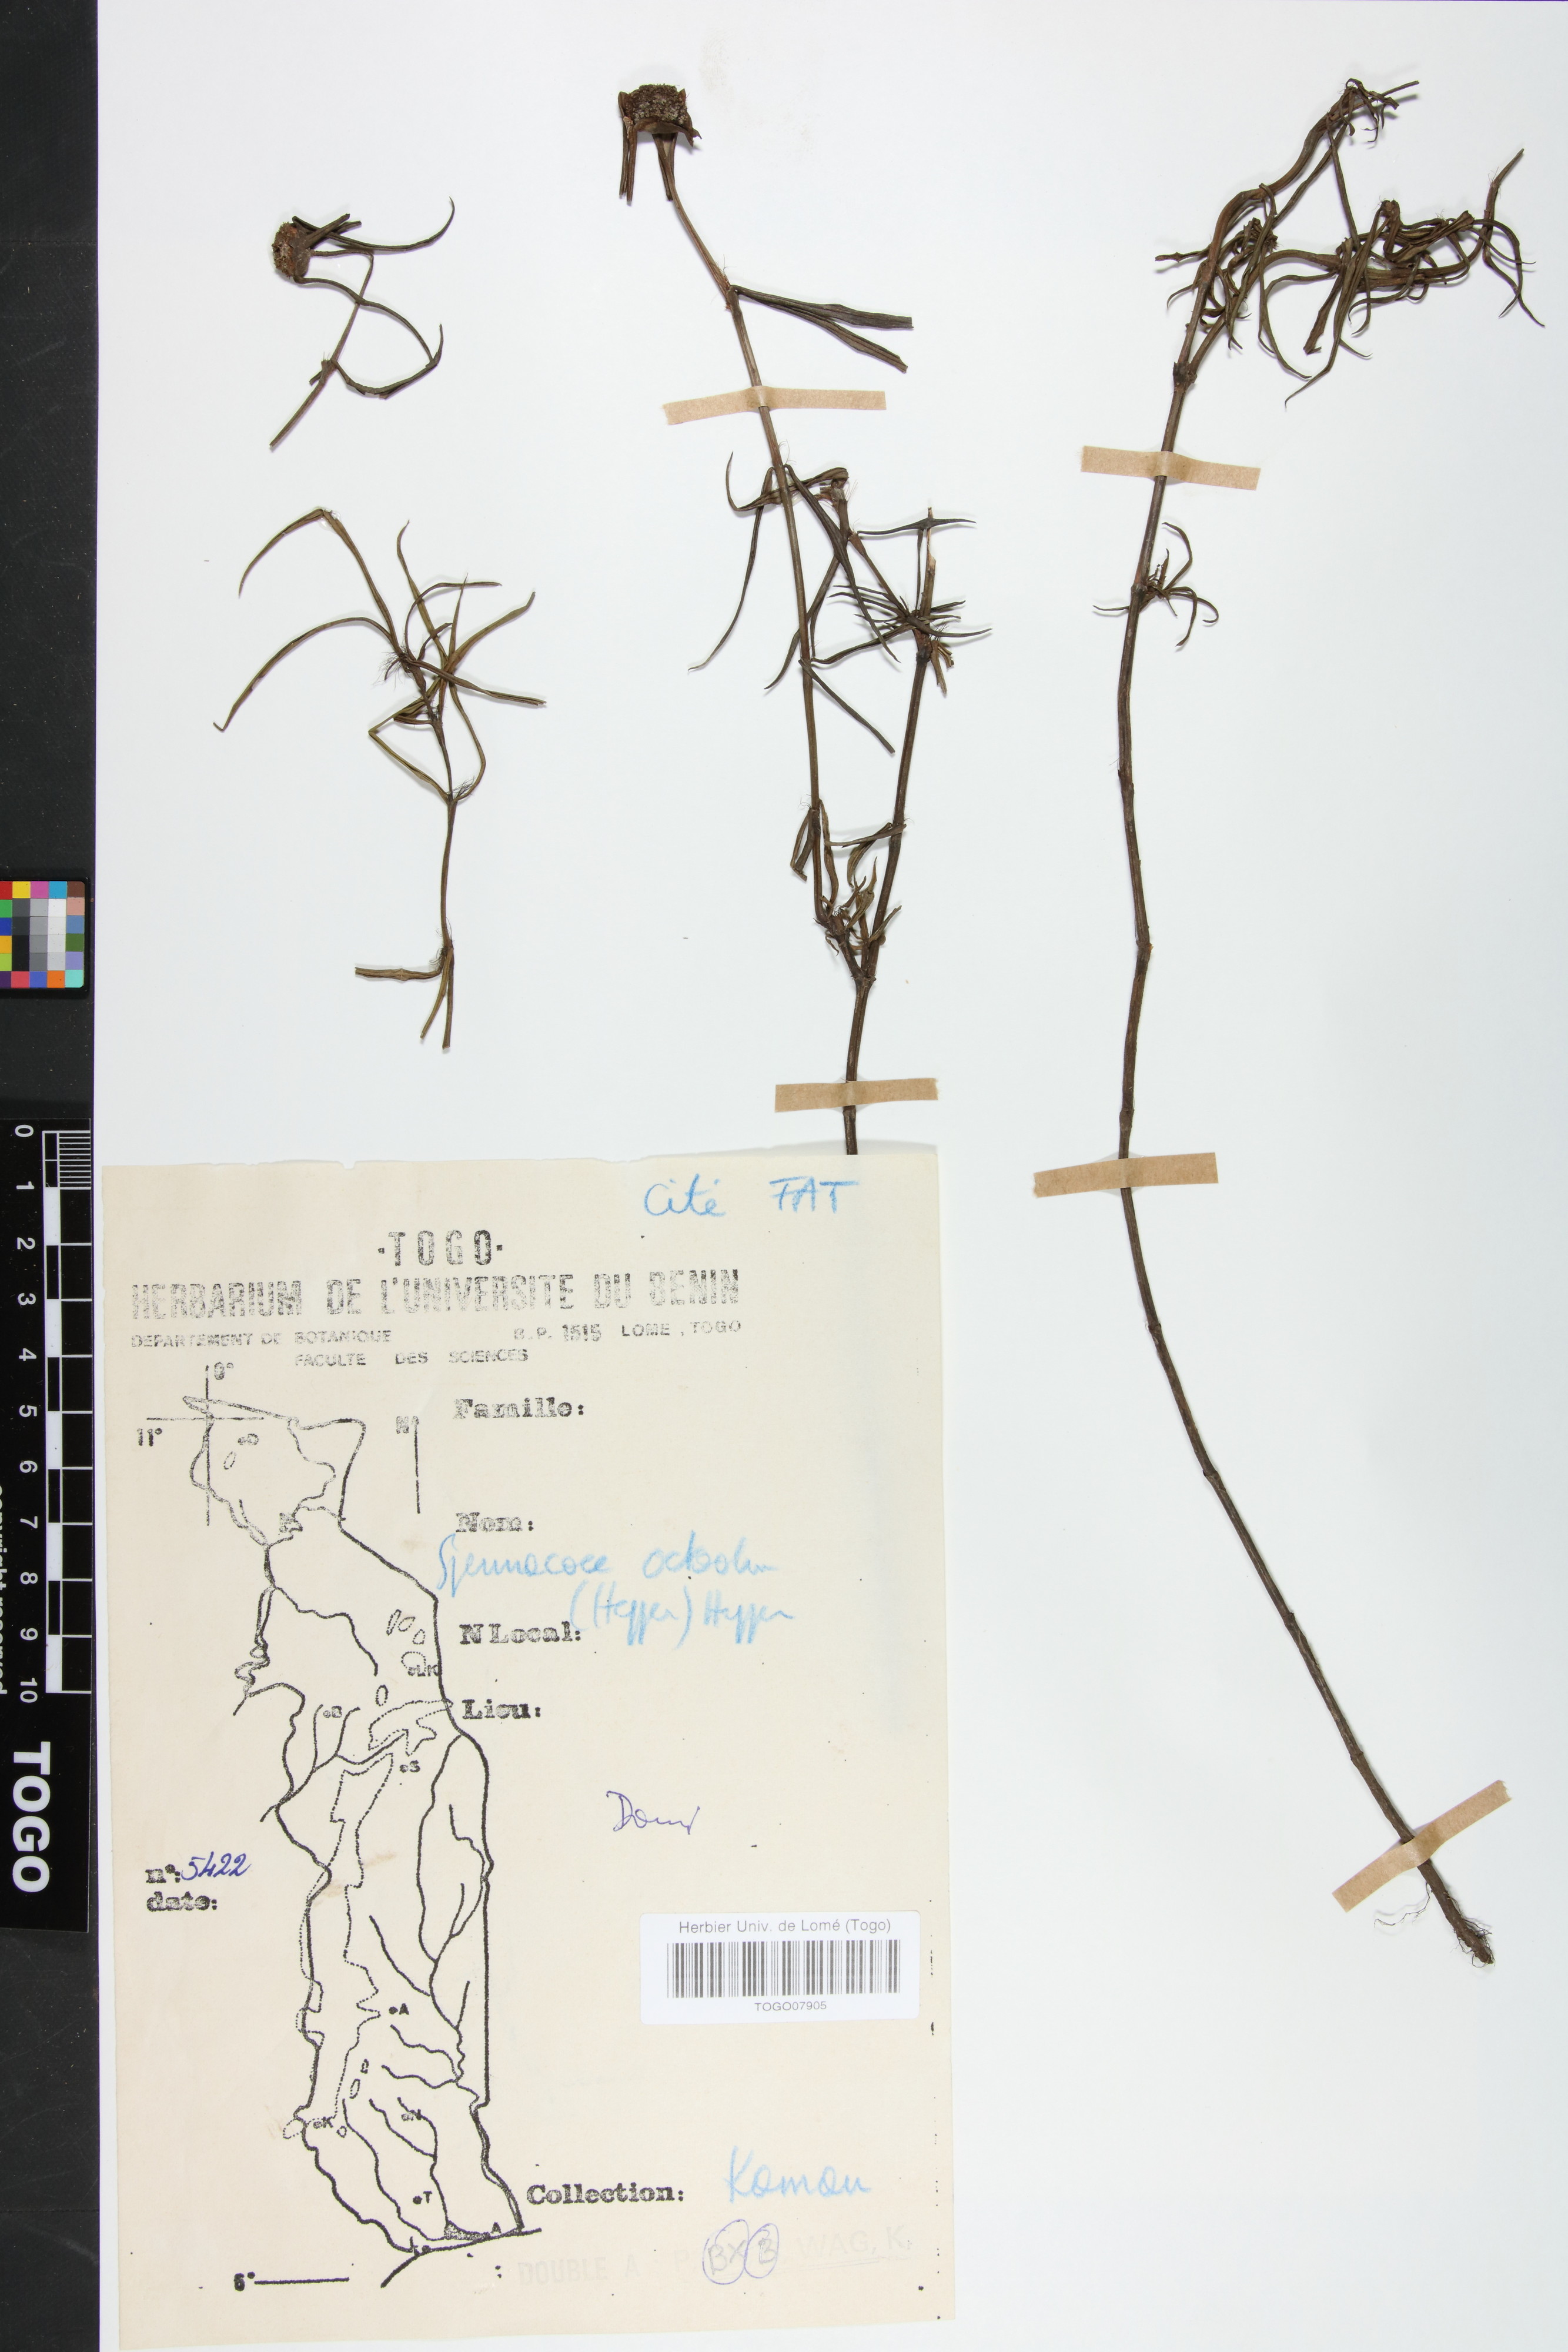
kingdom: Plantae
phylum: Tracheophyta
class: Magnoliopsida
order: Gentianales
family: Rubiaceae
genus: Spermacoce
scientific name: Spermacoce octodon
